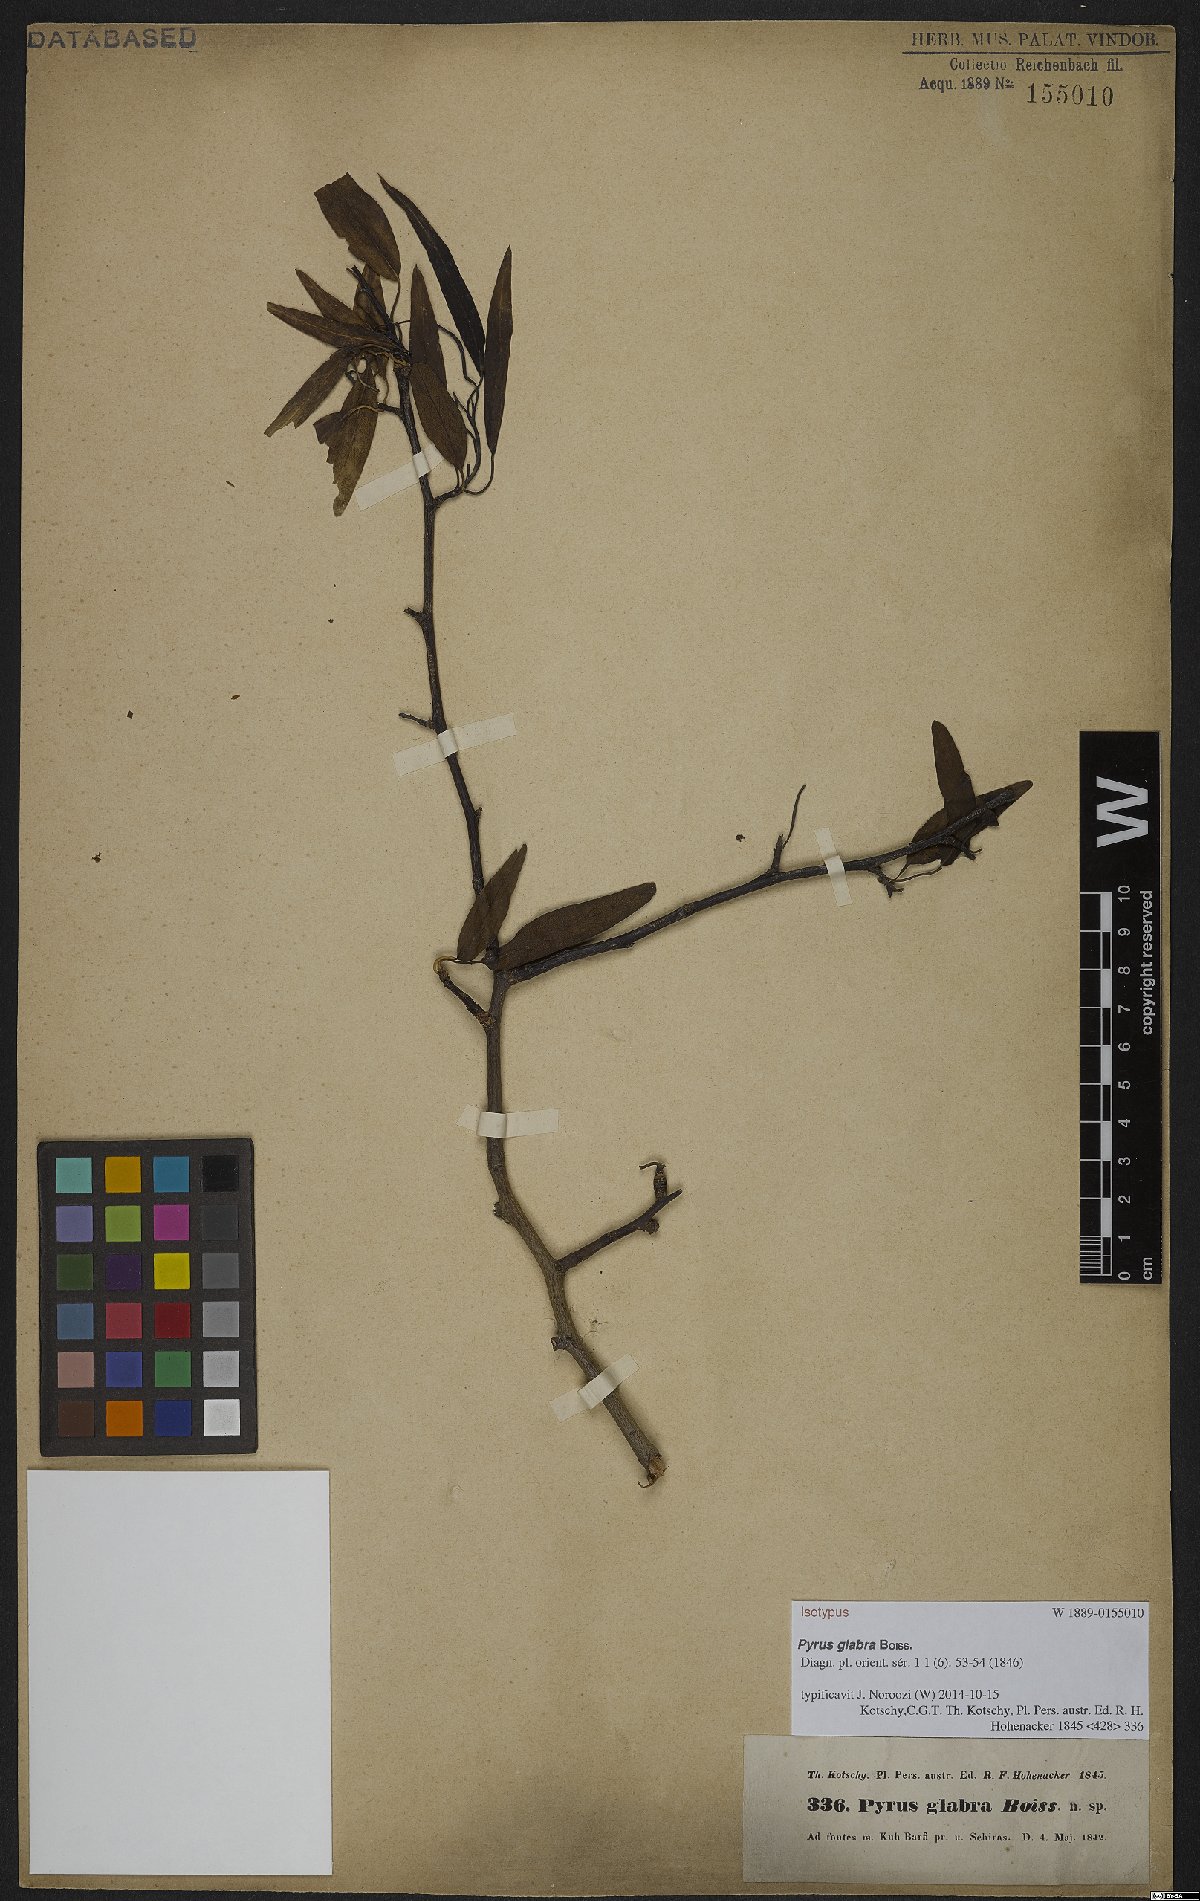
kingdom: Plantae
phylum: Tracheophyta
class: Magnoliopsida
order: Rosales
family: Rosaceae
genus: Pyrus
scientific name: Pyrus glabra
